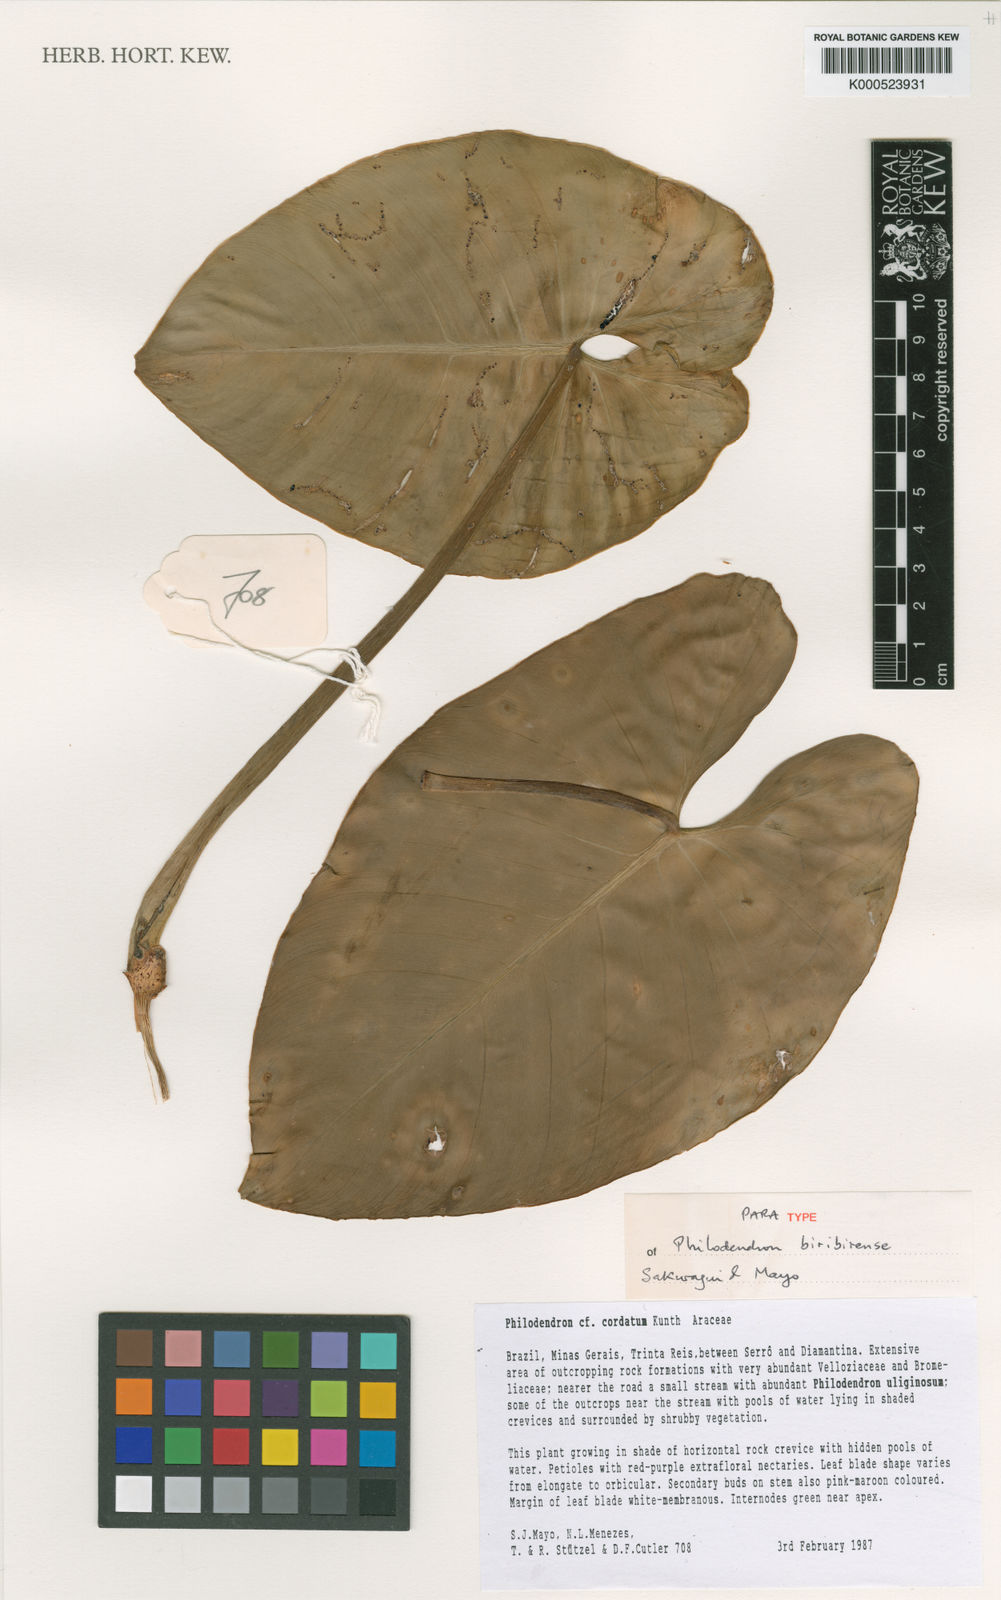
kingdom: Plantae
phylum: Tracheophyta
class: Liliopsida
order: Alismatales
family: Araceae
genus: Philodendron
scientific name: Philodendron biribiriense
